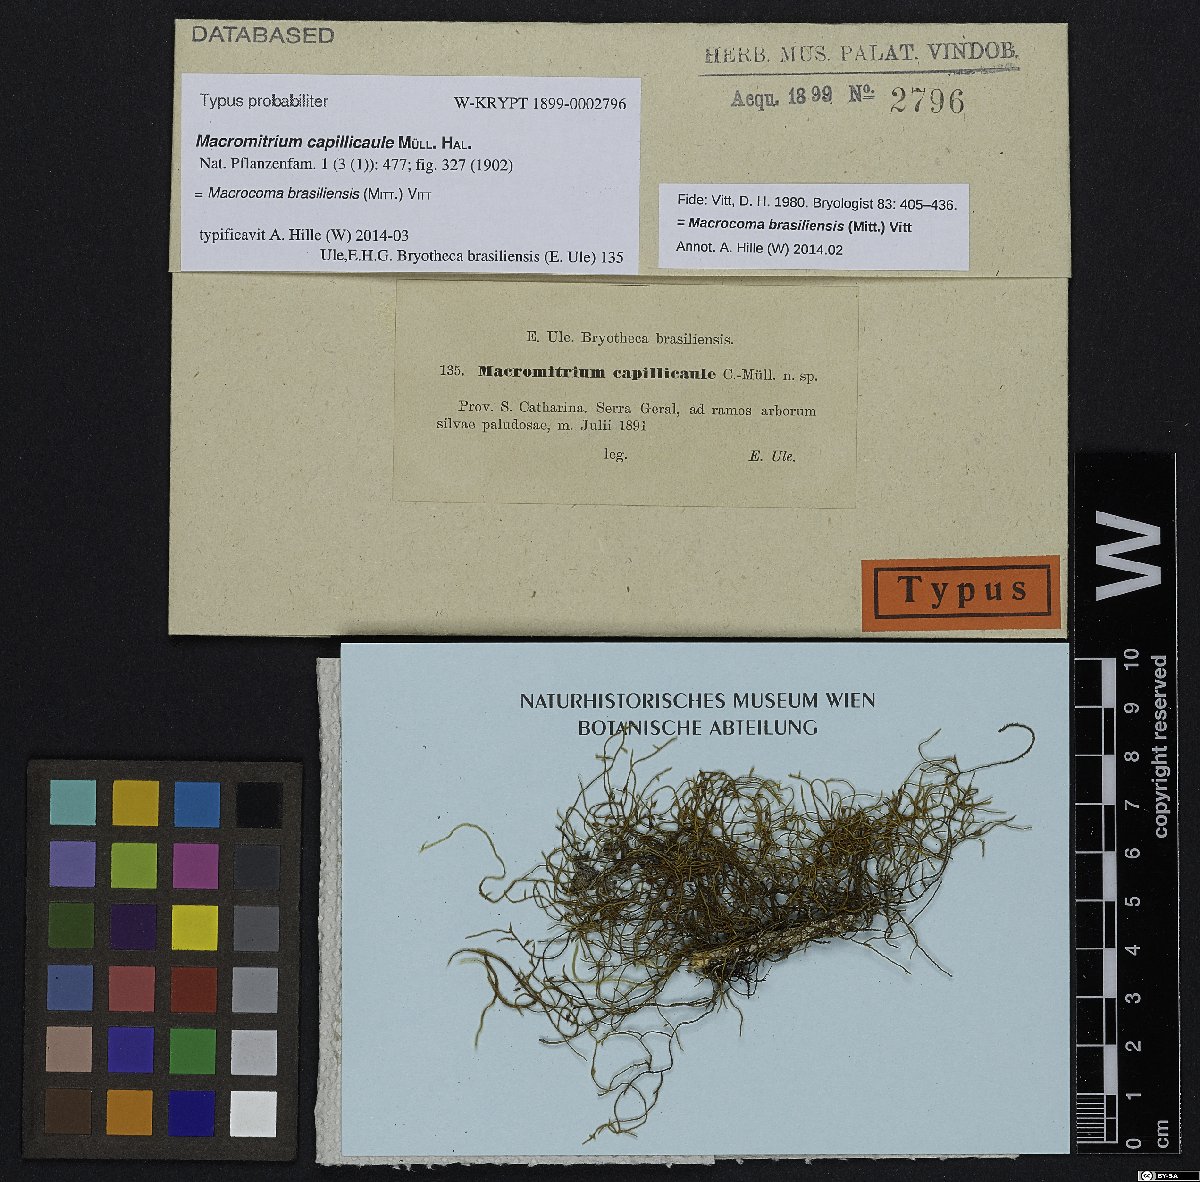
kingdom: Plantae
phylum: Bryophyta
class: Bryopsida
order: Orthotrichales
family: Orthotrichaceae
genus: Macrocoma
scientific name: Macrocoma brasiliensis
